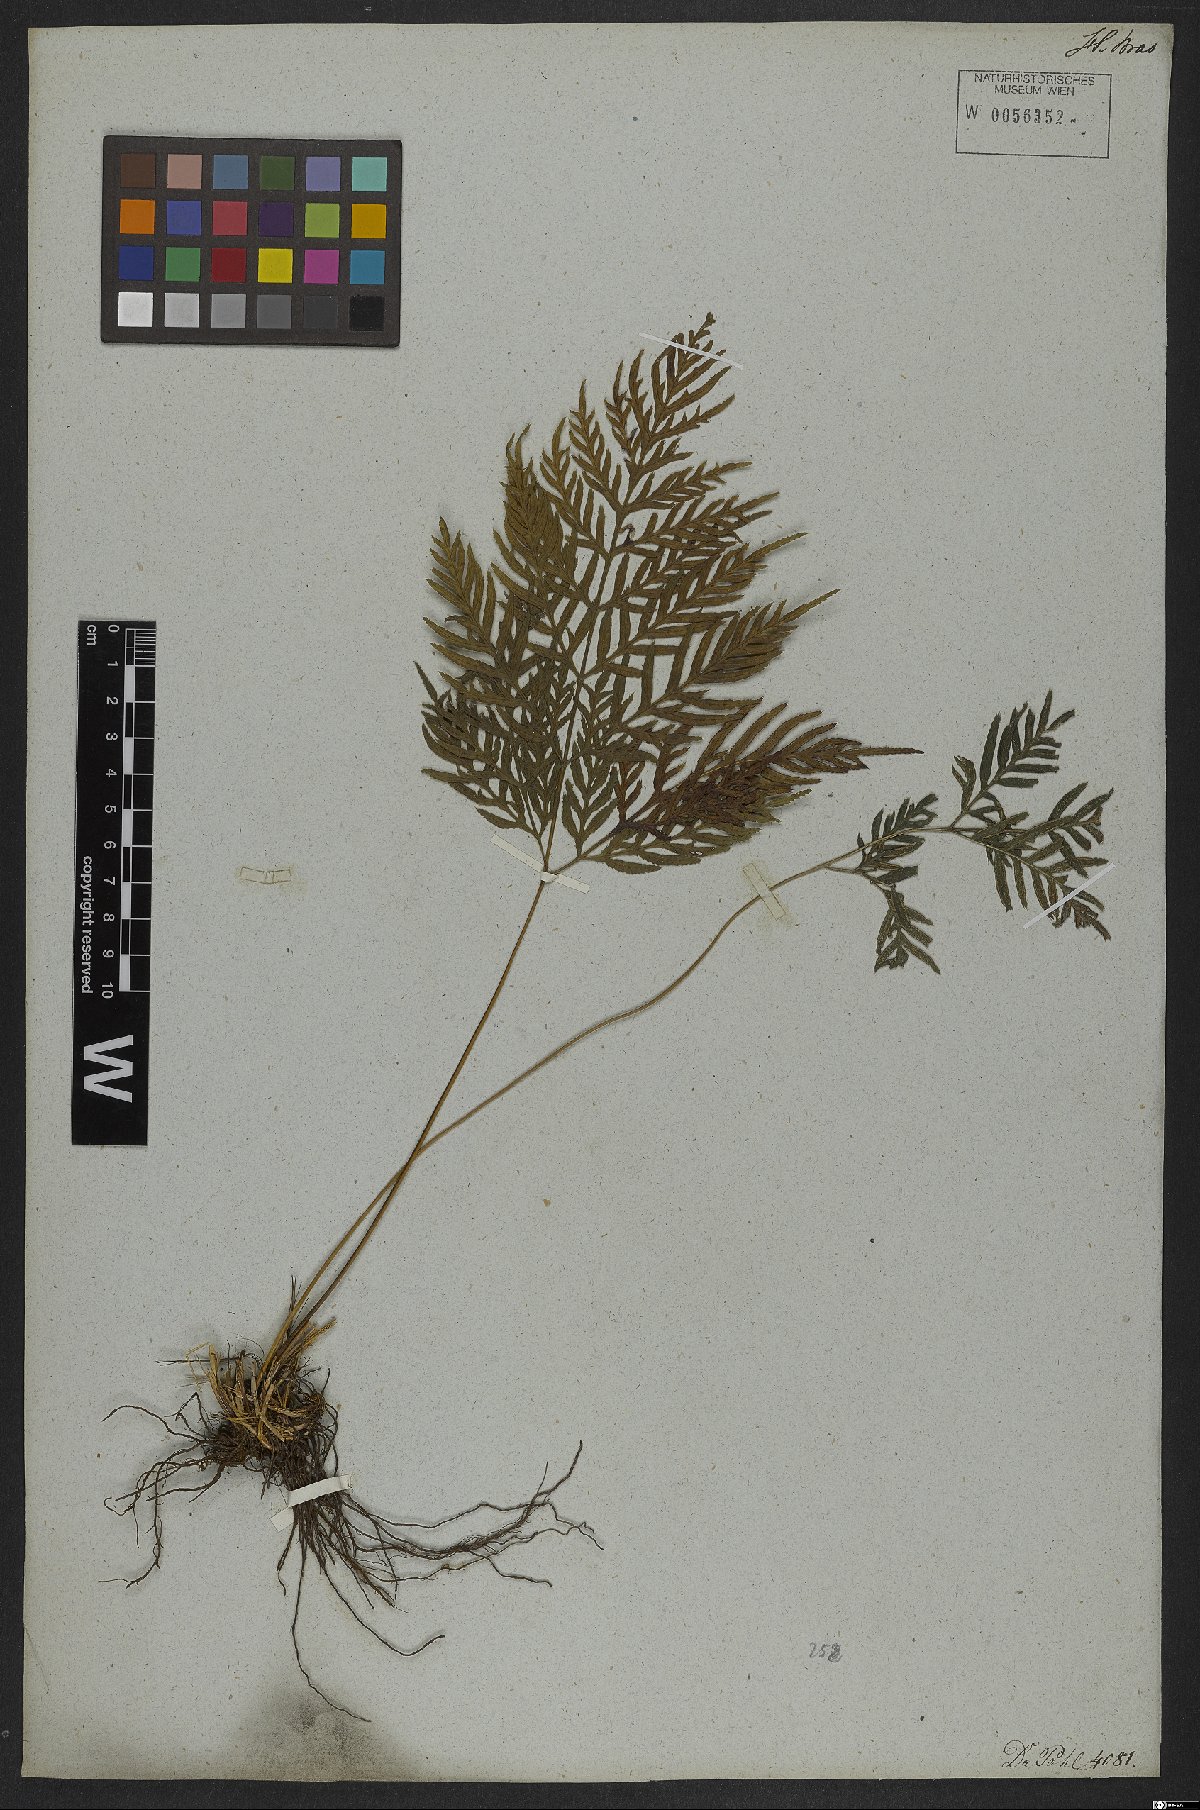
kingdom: Plantae
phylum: Tracheophyta
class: Polypodiopsida
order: Polypodiales
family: Pteridaceae
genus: Pteris
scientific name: Pteris leptophylla
